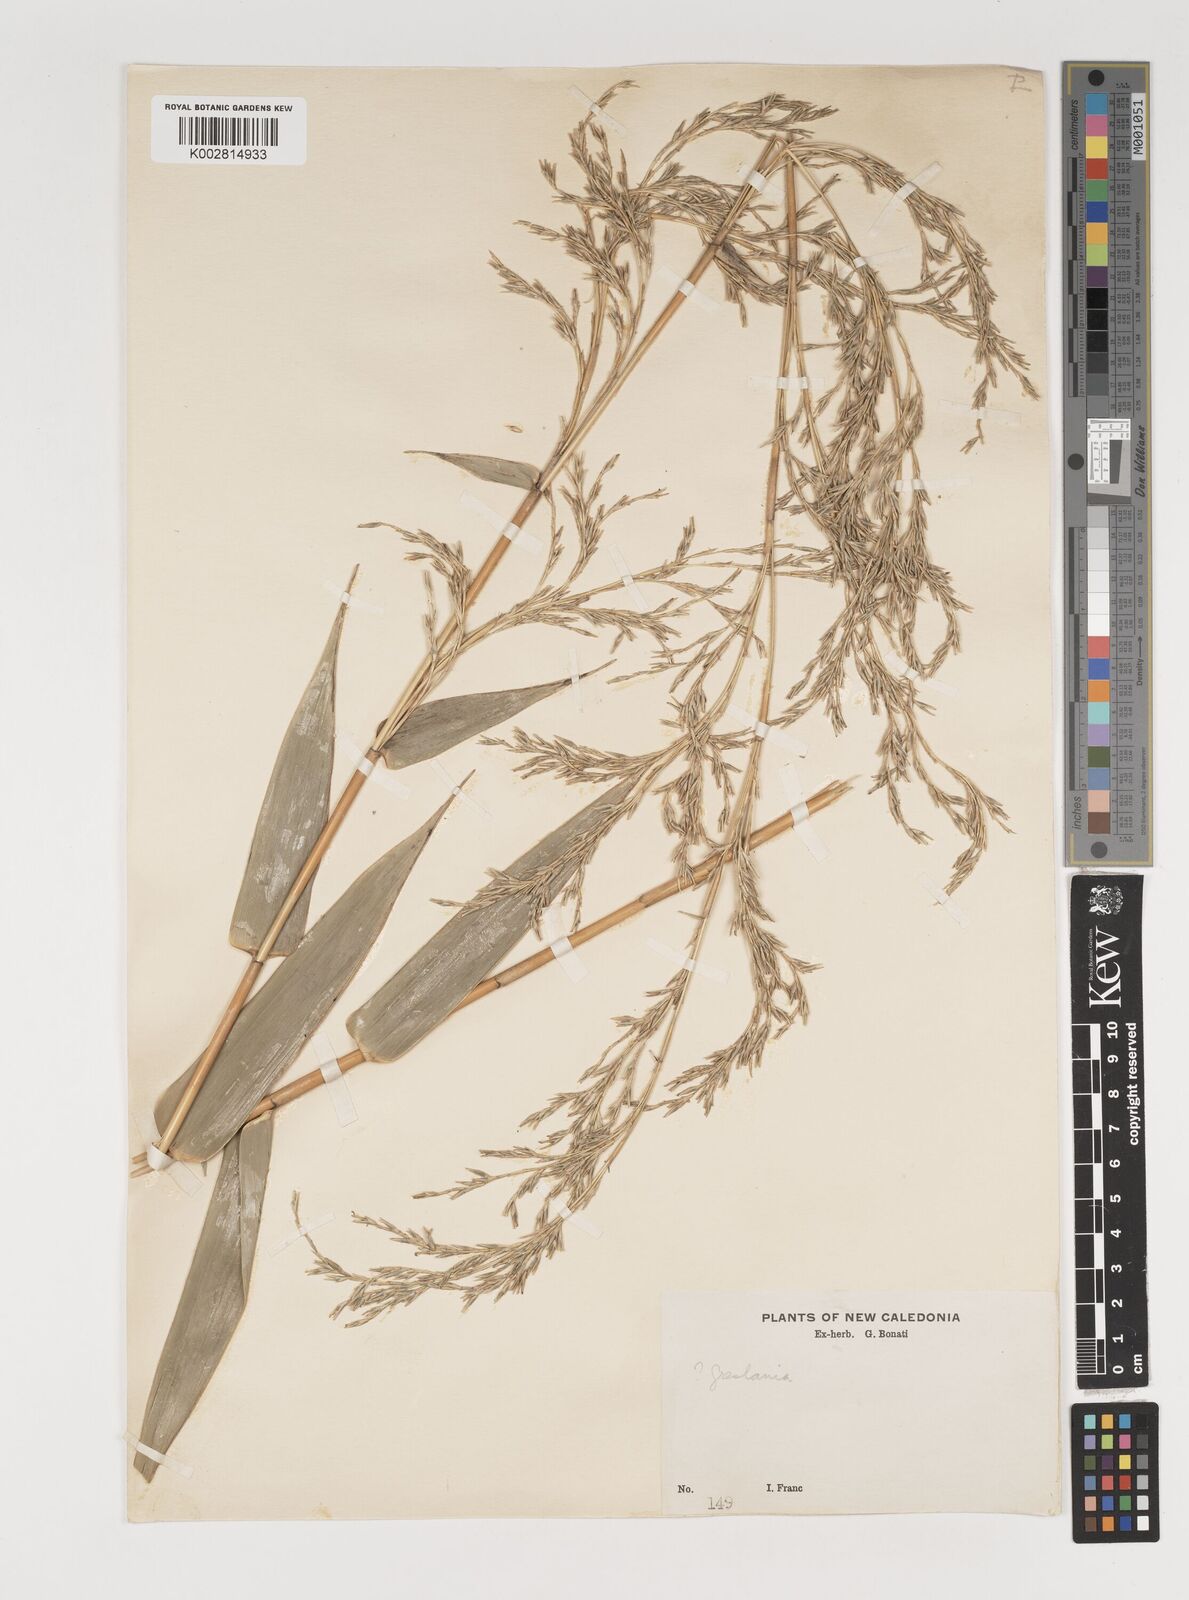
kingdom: Plantae
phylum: Tracheophyta
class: Liliopsida
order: Poales
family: Poaceae
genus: Greslania
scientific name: Greslania
